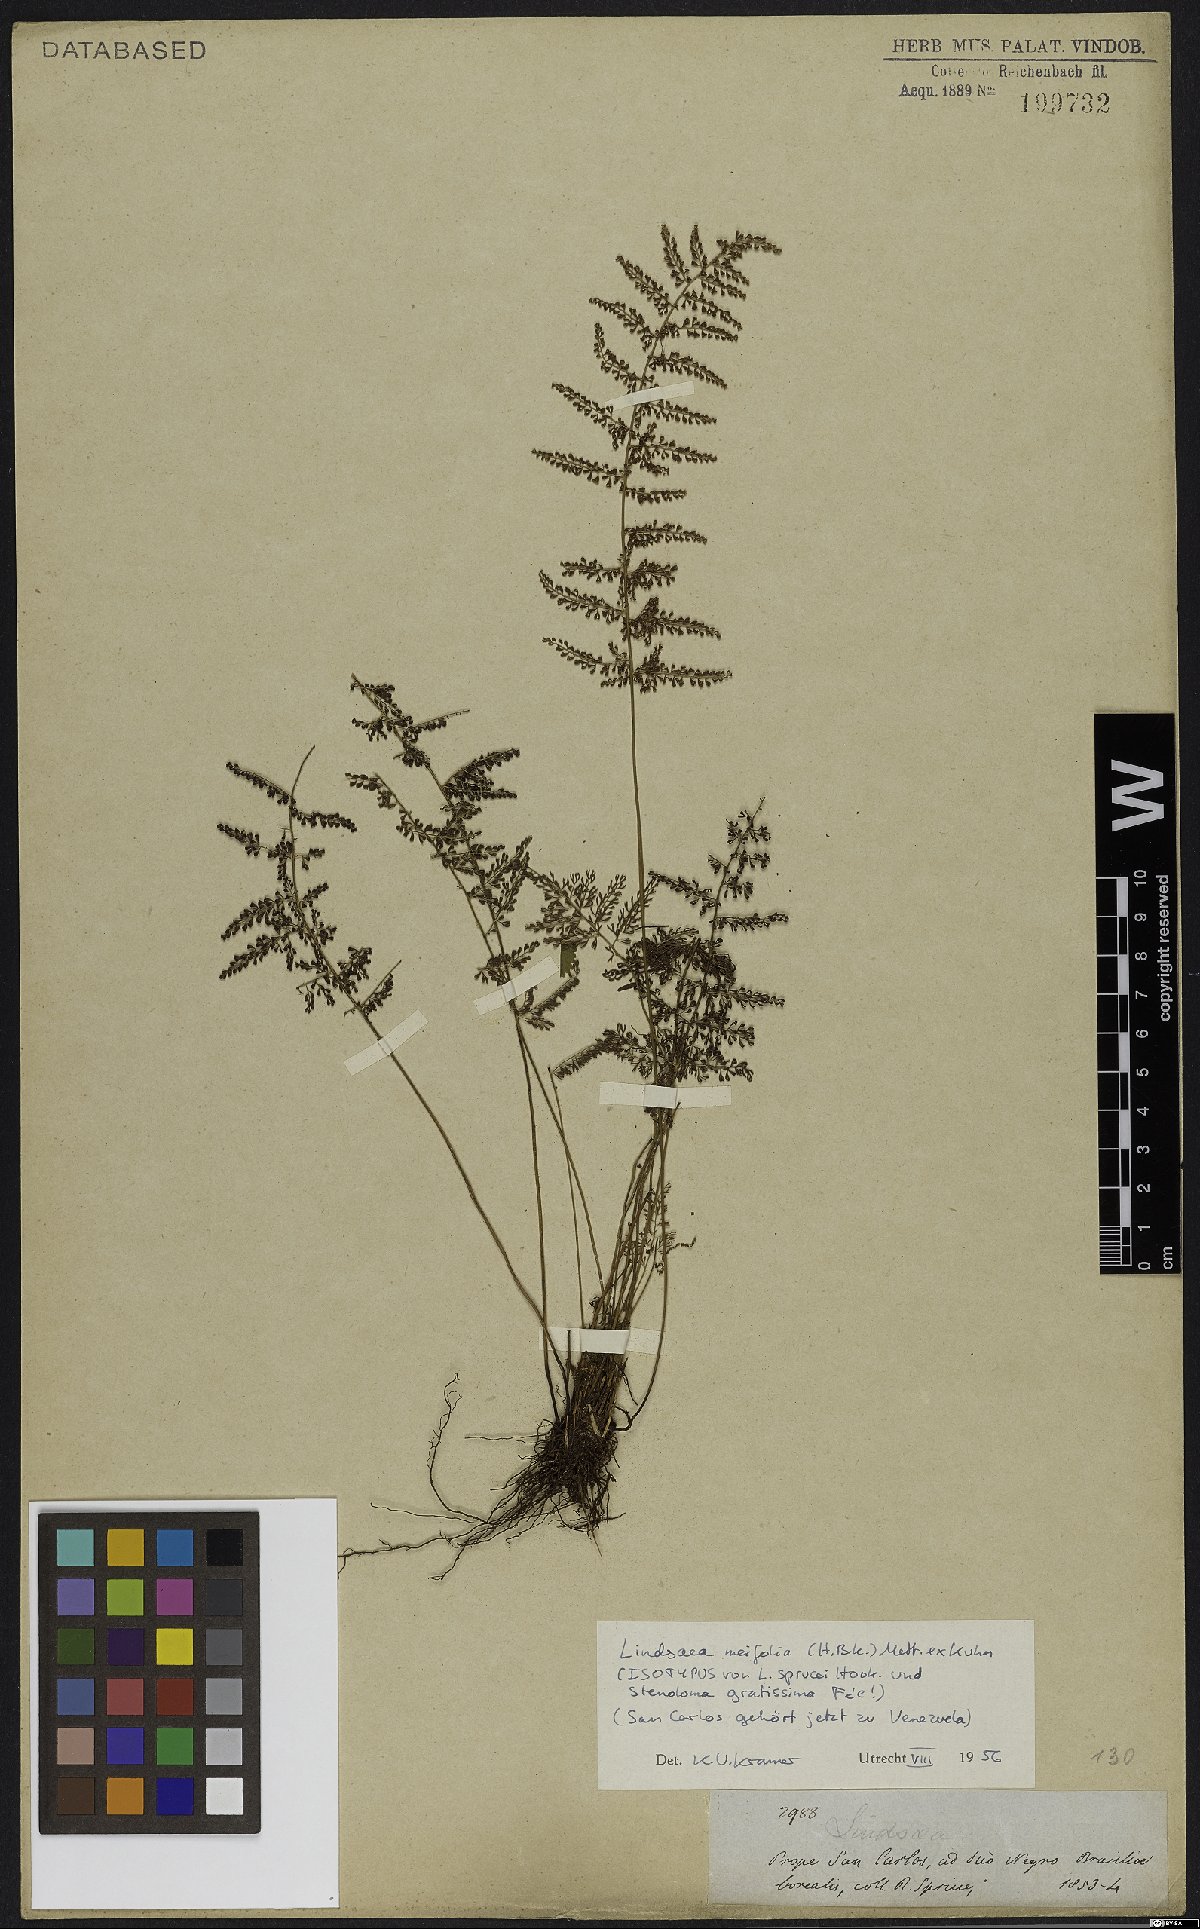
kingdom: Plantae
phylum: Tracheophyta
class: Polypodiopsida
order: Polypodiales
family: Lindsaeaceae
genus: Lindsaea
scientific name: Lindsaea meifolia
